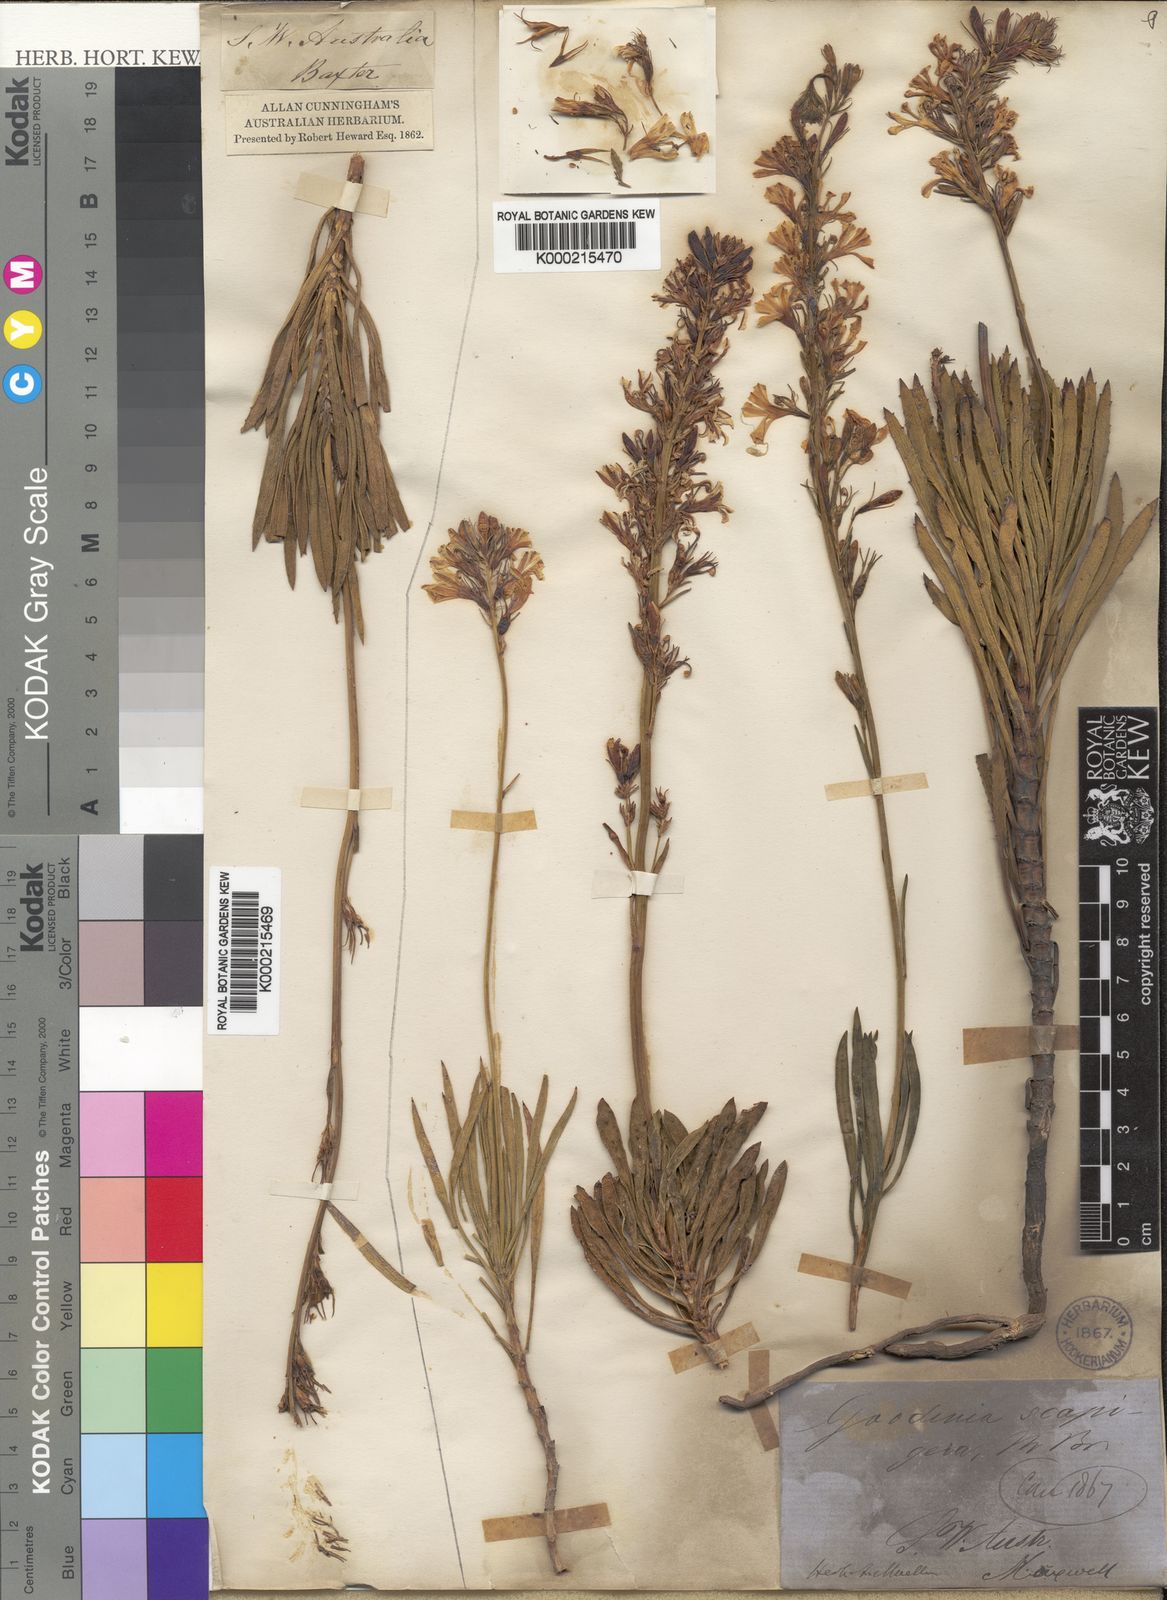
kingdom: Plantae
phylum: Tracheophyta
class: Magnoliopsida
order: Asterales
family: Goodeniaceae
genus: Goodenia
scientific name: Goodenia scapigera
